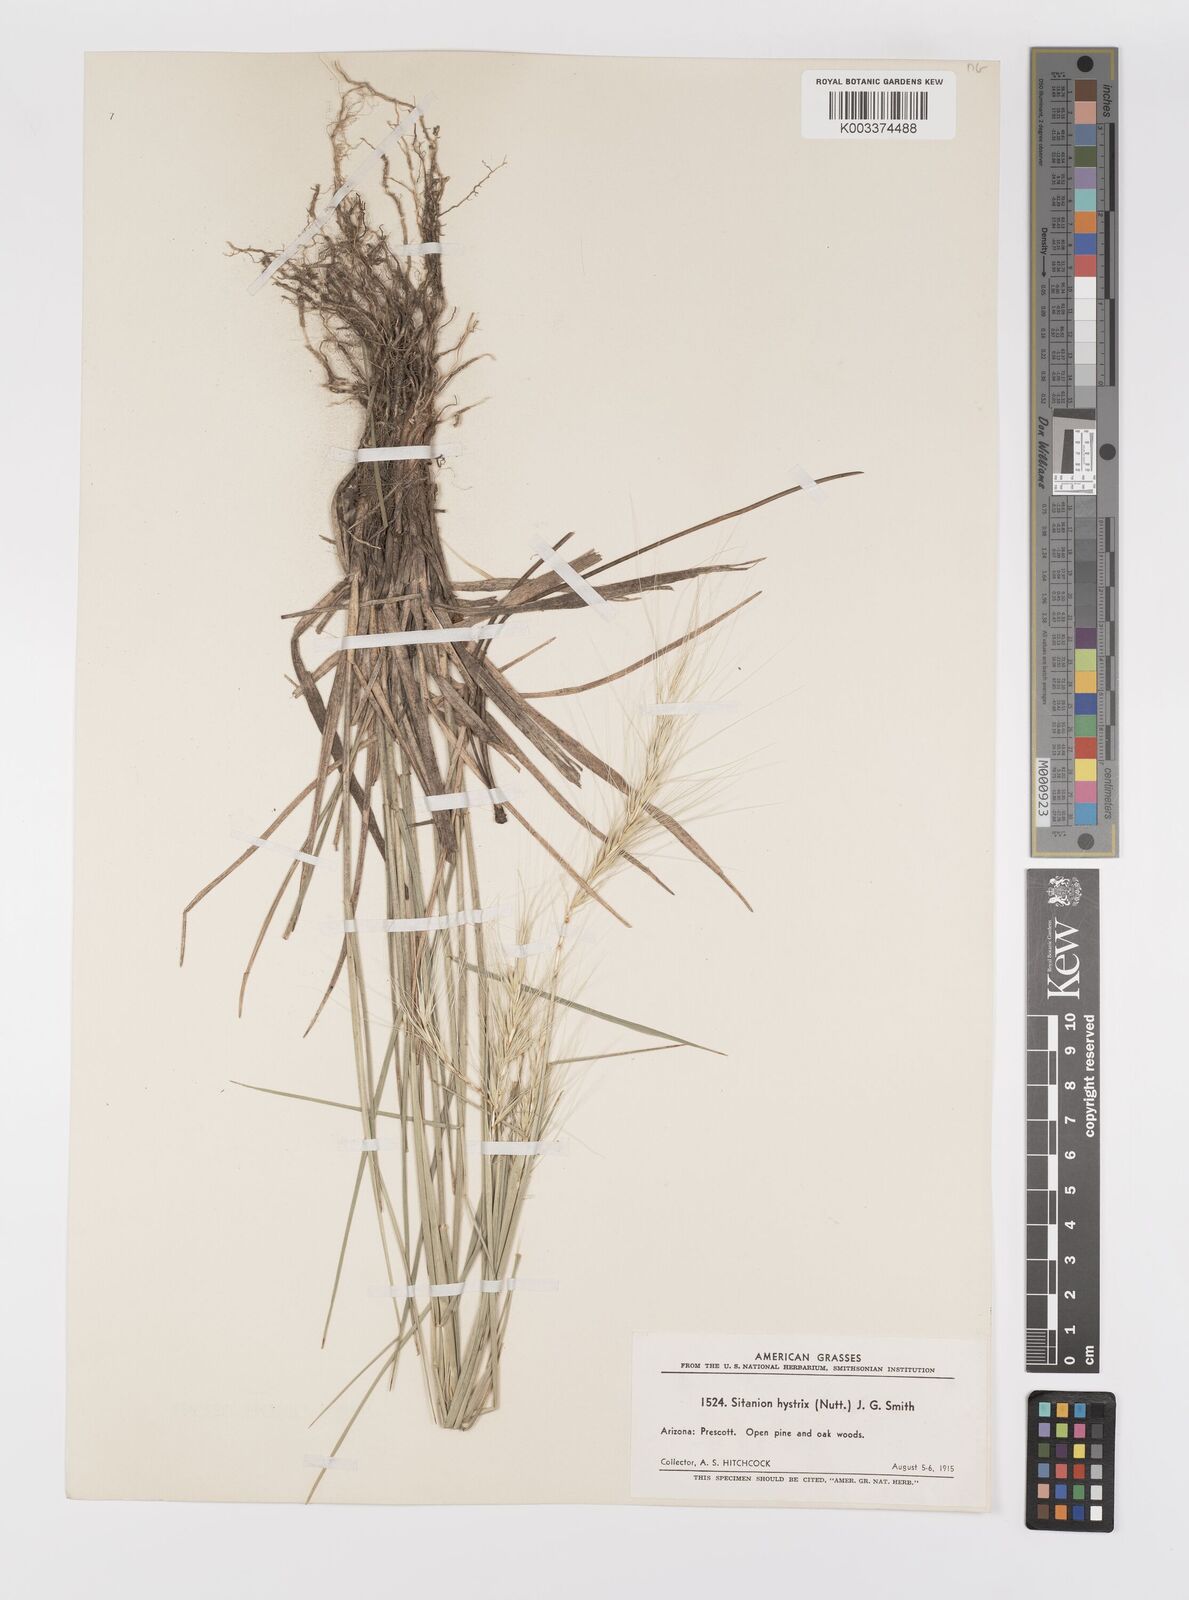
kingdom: Plantae
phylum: Tracheophyta
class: Liliopsida
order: Poales
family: Poaceae
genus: Elymus
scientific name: Elymus elymoides
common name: Bottlebrush squirreltail
